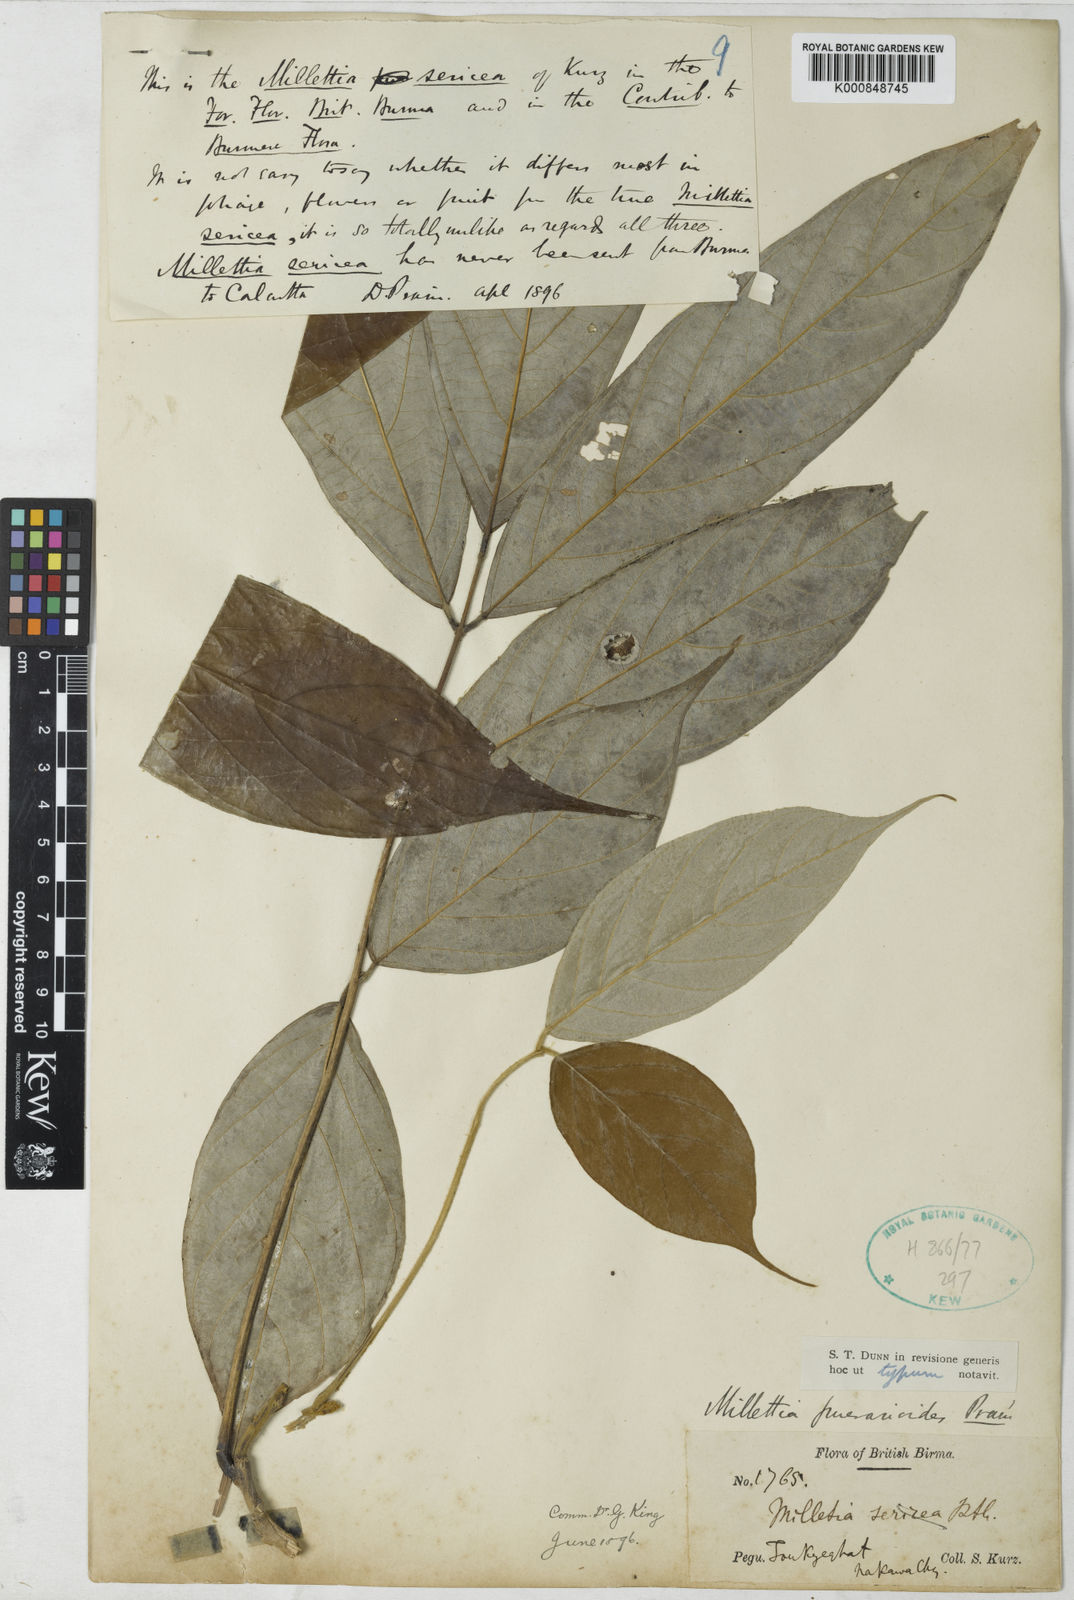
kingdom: Plantae
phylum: Tracheophyta
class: Magnoliopsida
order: Fabales
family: Fabaceae
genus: Millettia
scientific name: Millettia puerarioides
